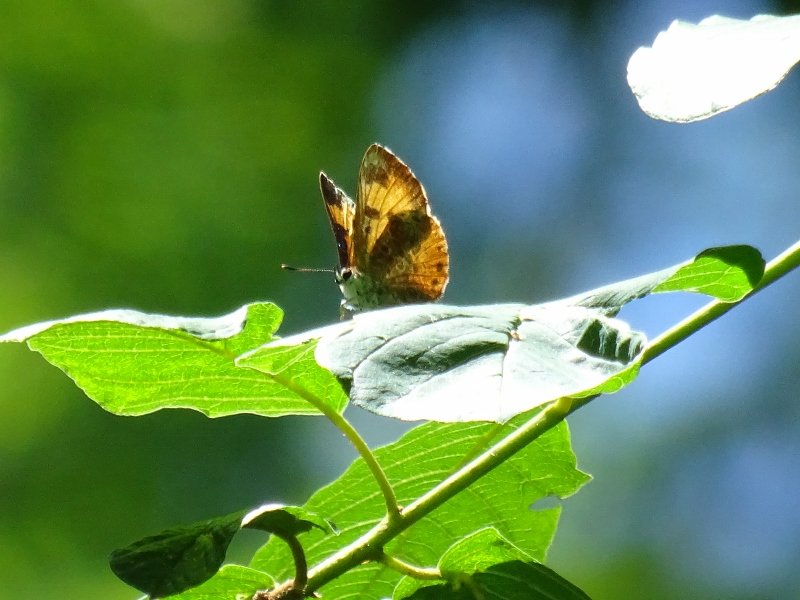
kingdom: Animalia
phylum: Arthropoda
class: Insecta
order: Lepidoptera
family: Lycaenidae
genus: Feniseca
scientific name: Feniseca tarquinius
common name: Harvester
